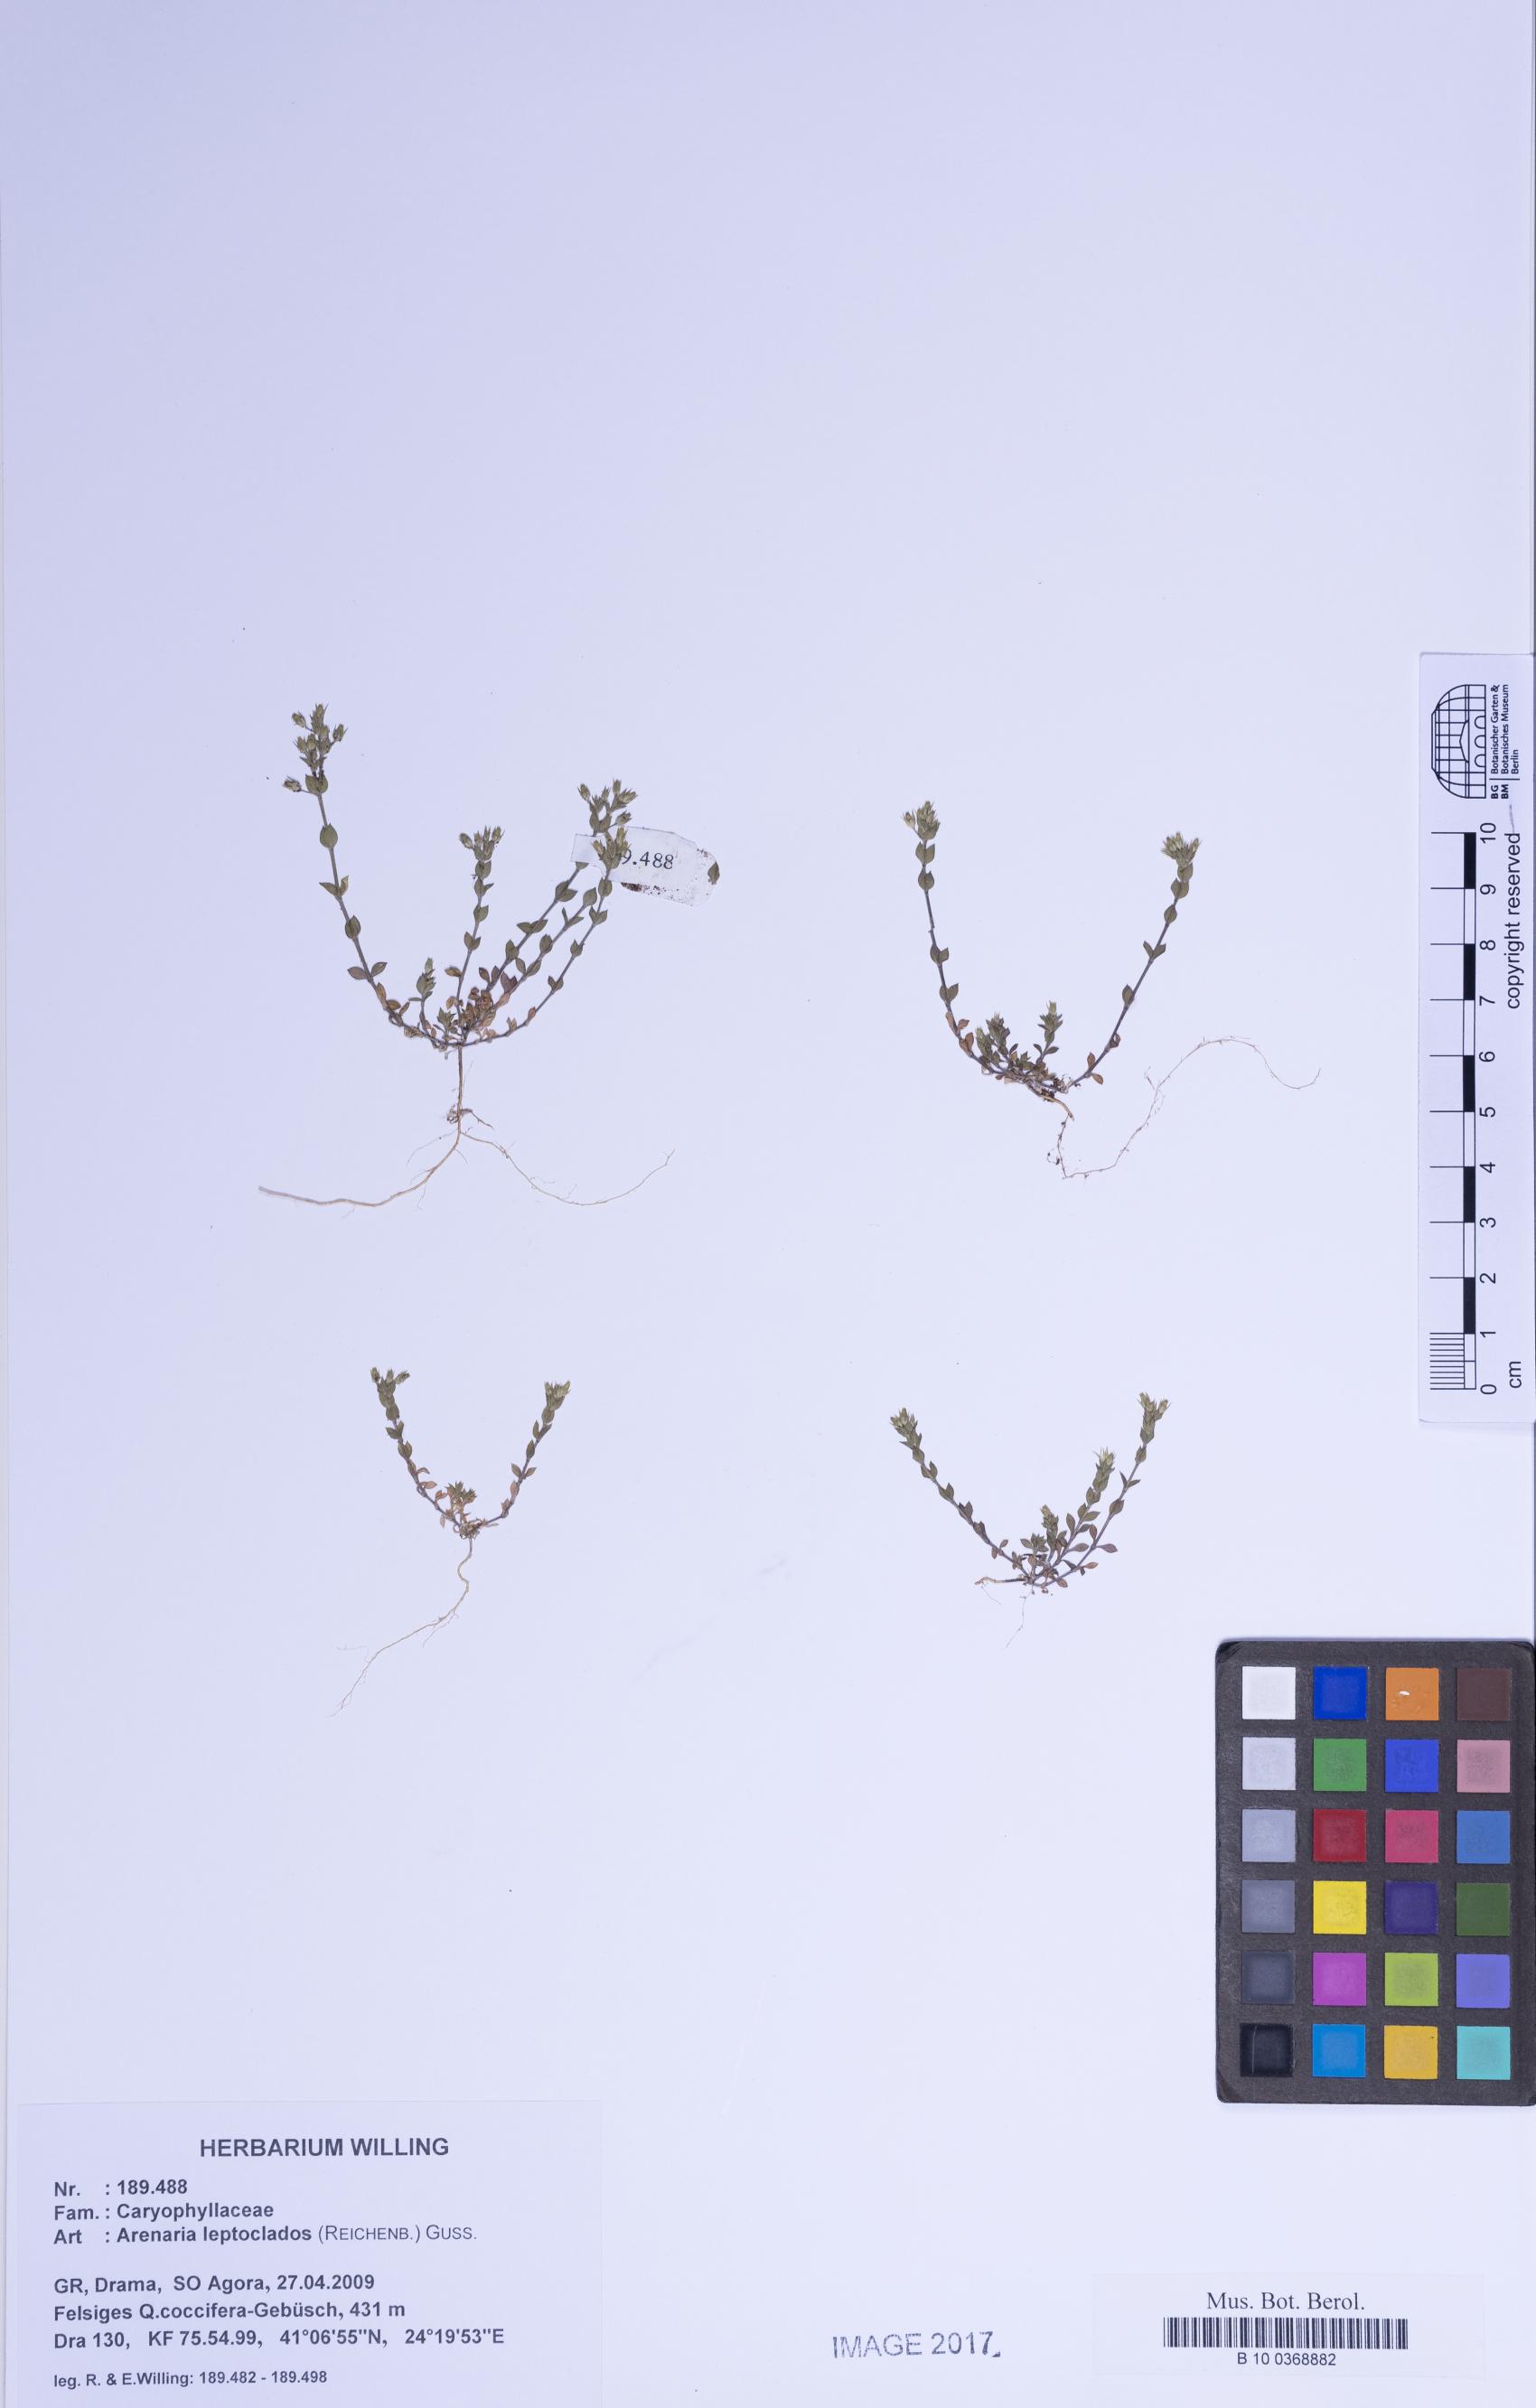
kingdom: Plantae
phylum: Tracheophyta
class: Magnoliopsida
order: Caryophyllales
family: Caryophyllaceae
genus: Arenaria
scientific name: Arenaria leptoclados
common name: Thyme-leaved sandwort
